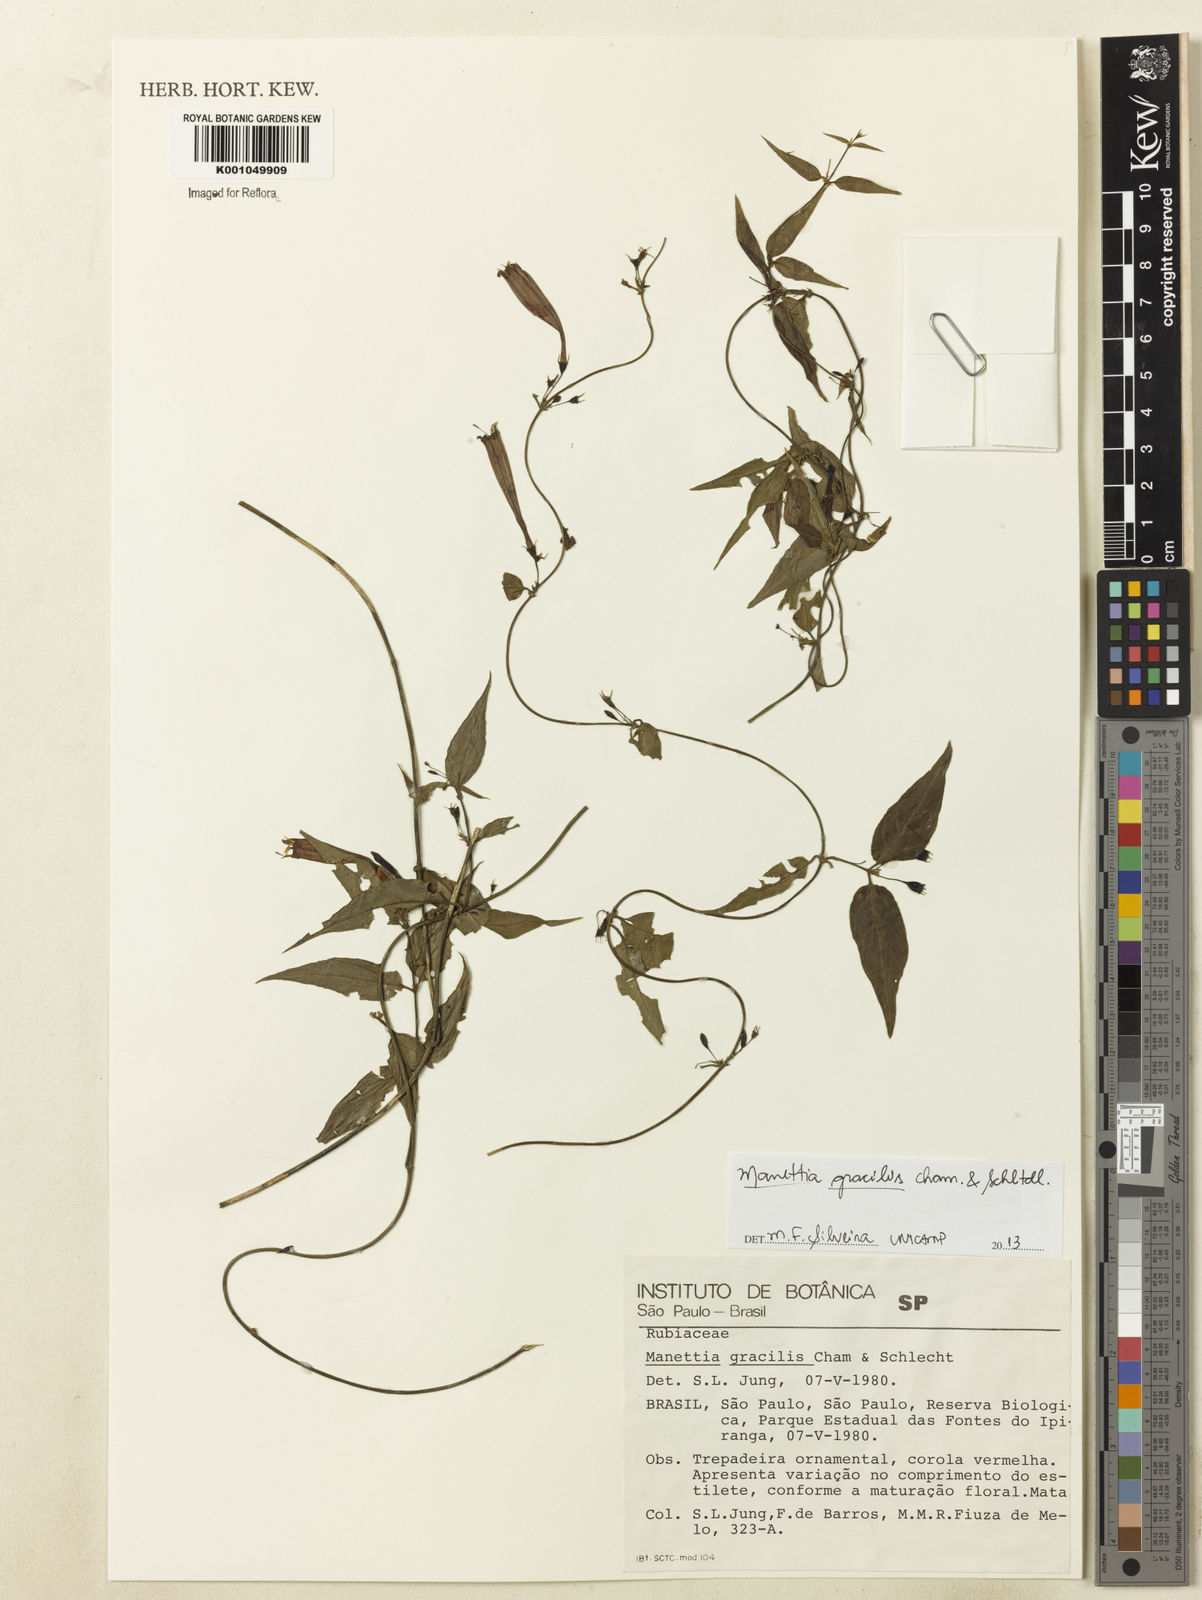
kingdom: Plantae
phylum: Tracheophyta
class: Magnoliopsida
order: Gentianales
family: Rubiaceae
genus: Manettia
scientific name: Manettia gracilis
